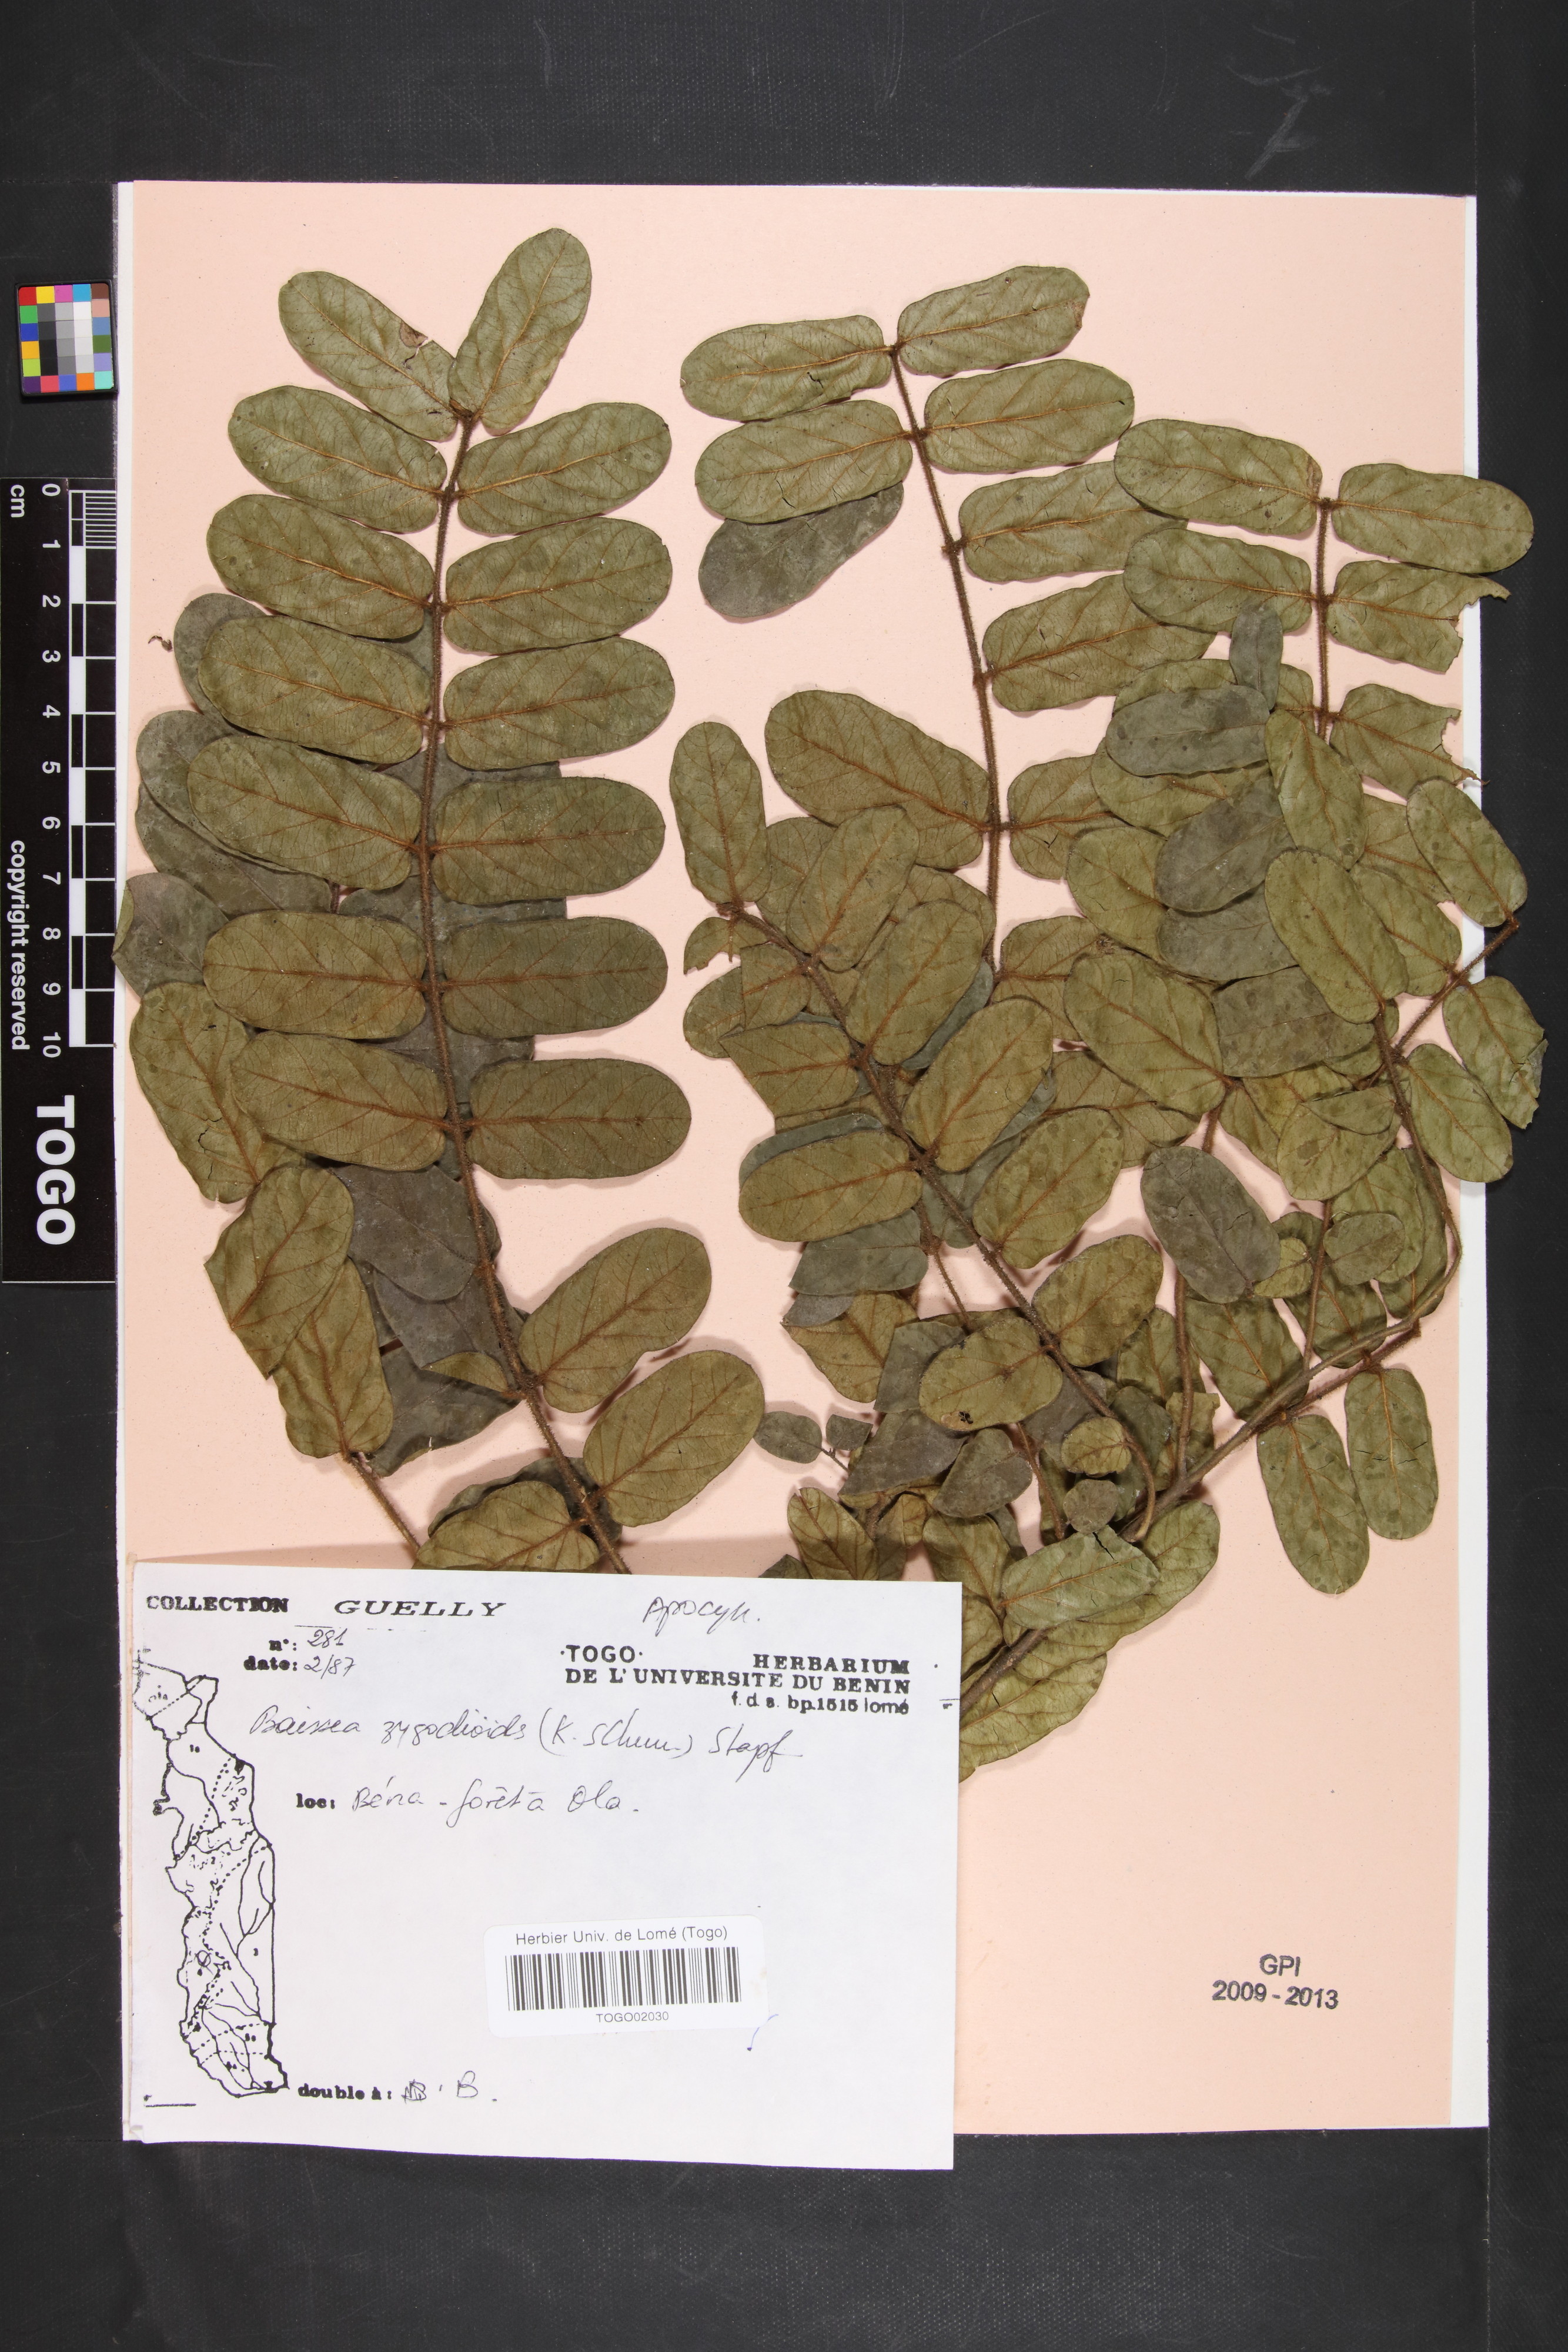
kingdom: Plantae
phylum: Tracheophyta
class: Magnoliopsida
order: Gentianales
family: Apocynaceae
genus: Baissea
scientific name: Baissea zygodioides
